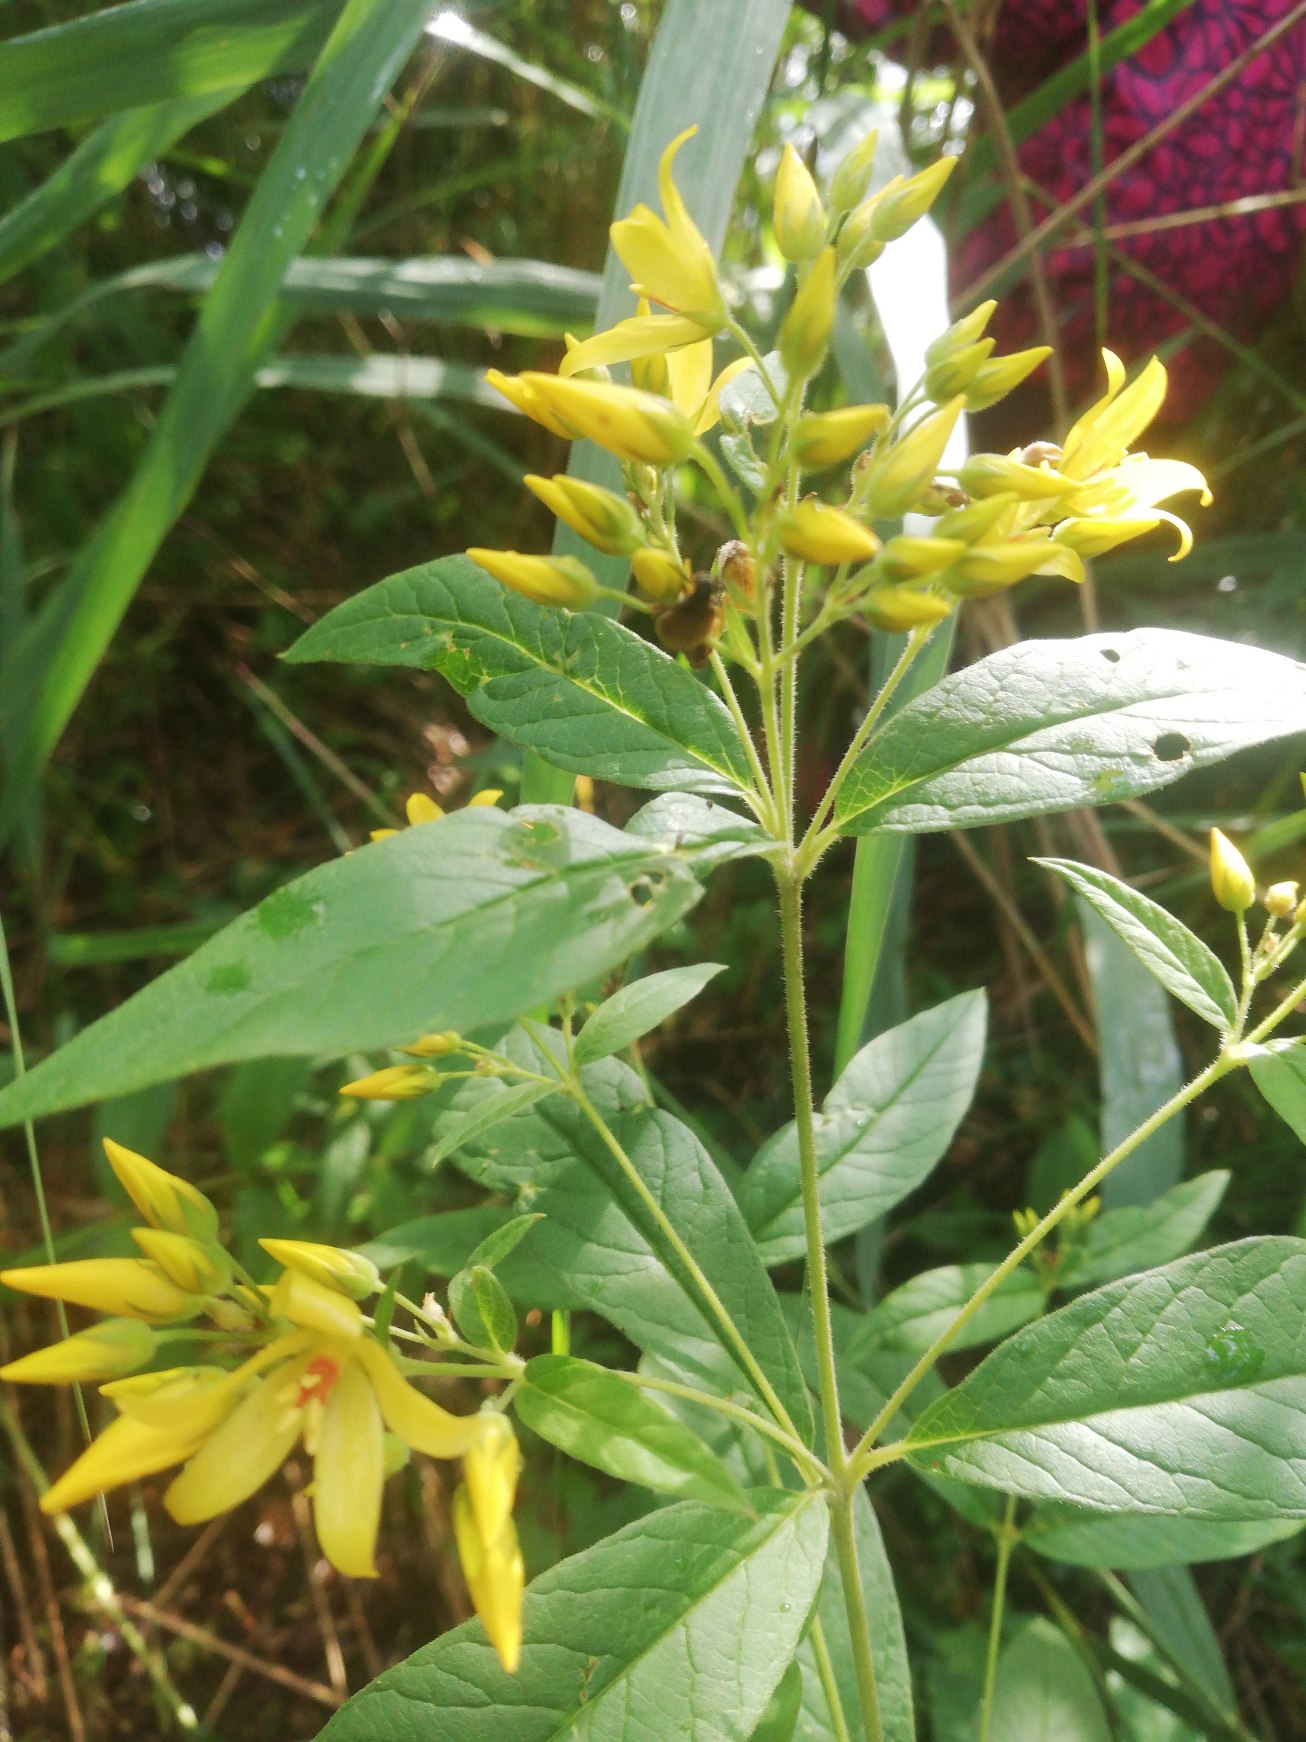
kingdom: Plantae
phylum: Tracheophyta
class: Magnoliopsida
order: Ericales
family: Primulaceae
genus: Lysimachia
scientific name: Lysimachia vulgaris
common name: Almindelig fredløs
